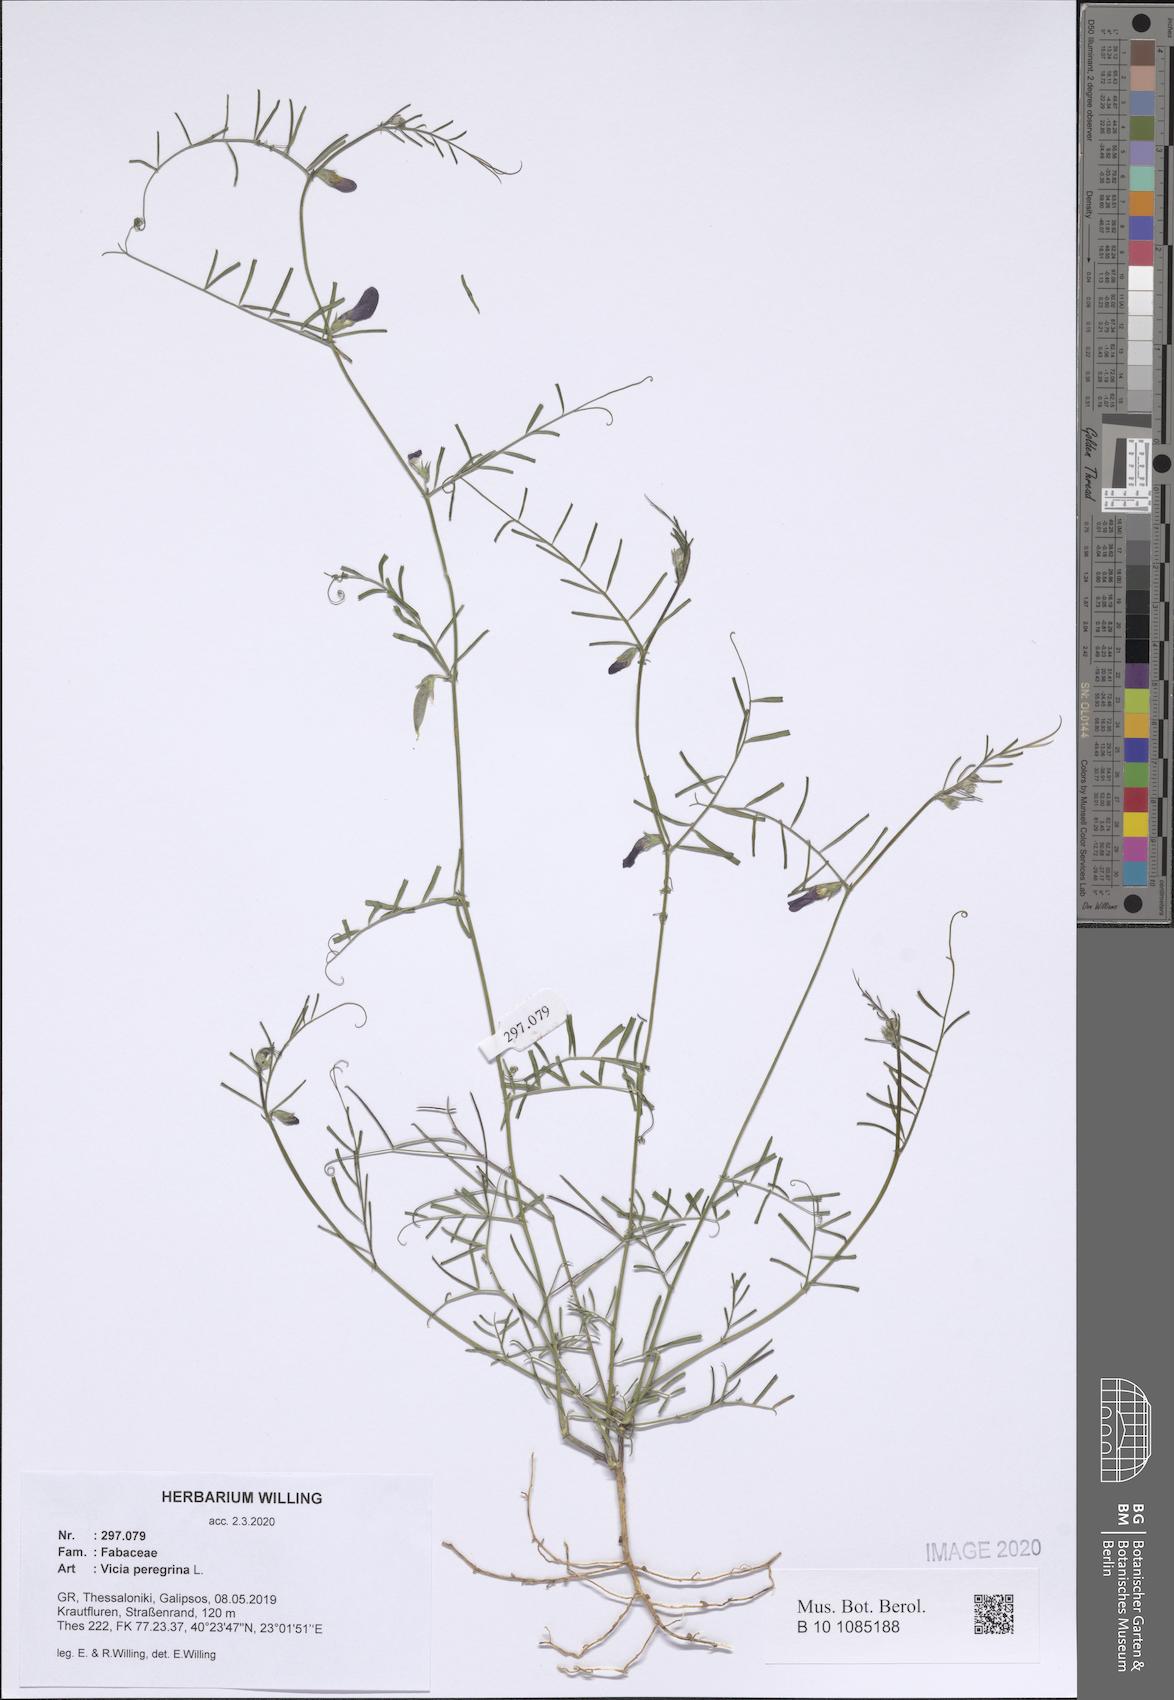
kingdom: Plantae
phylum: Tracheophyta
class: Magnoliopsida
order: Fabales
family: Fabaceae
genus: Vicia
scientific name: Vicia peregrina
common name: Broad-pod vetch
